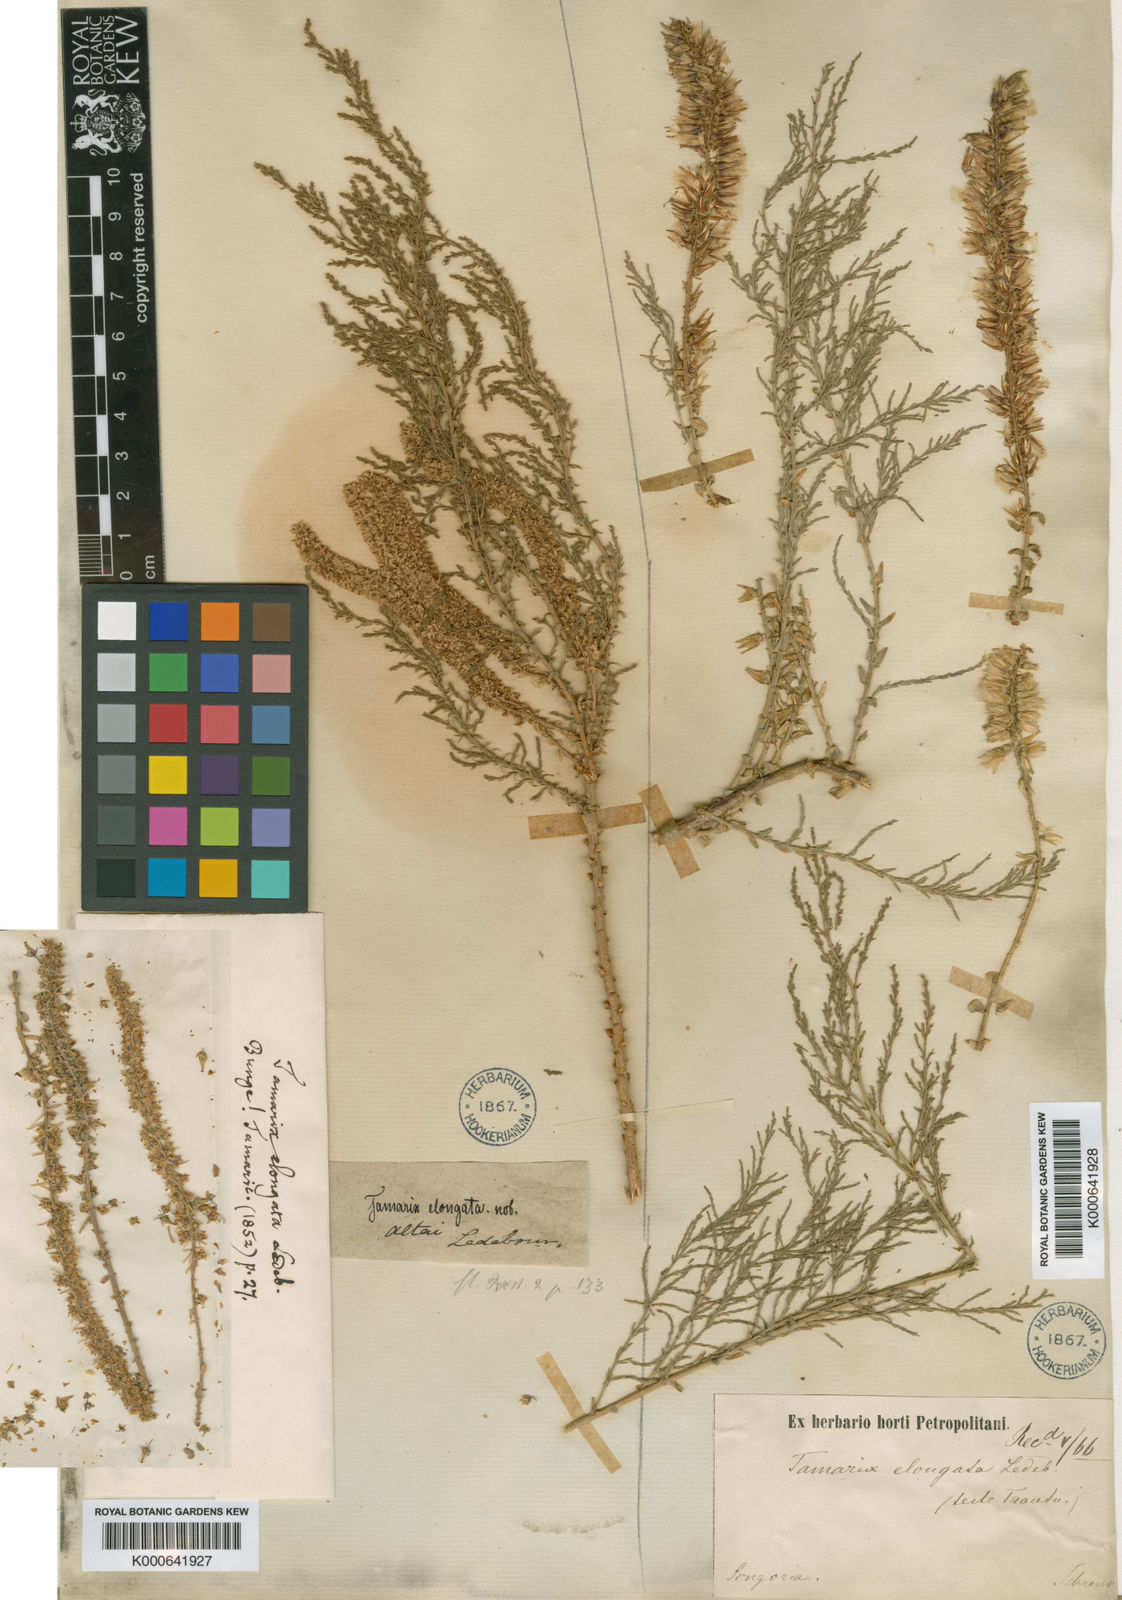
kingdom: Plantae
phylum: Tracheophyta
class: Magnoliopsida
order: Caryophyllales
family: Tamaricaceae
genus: Tamarix
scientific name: Tamarix elongata
